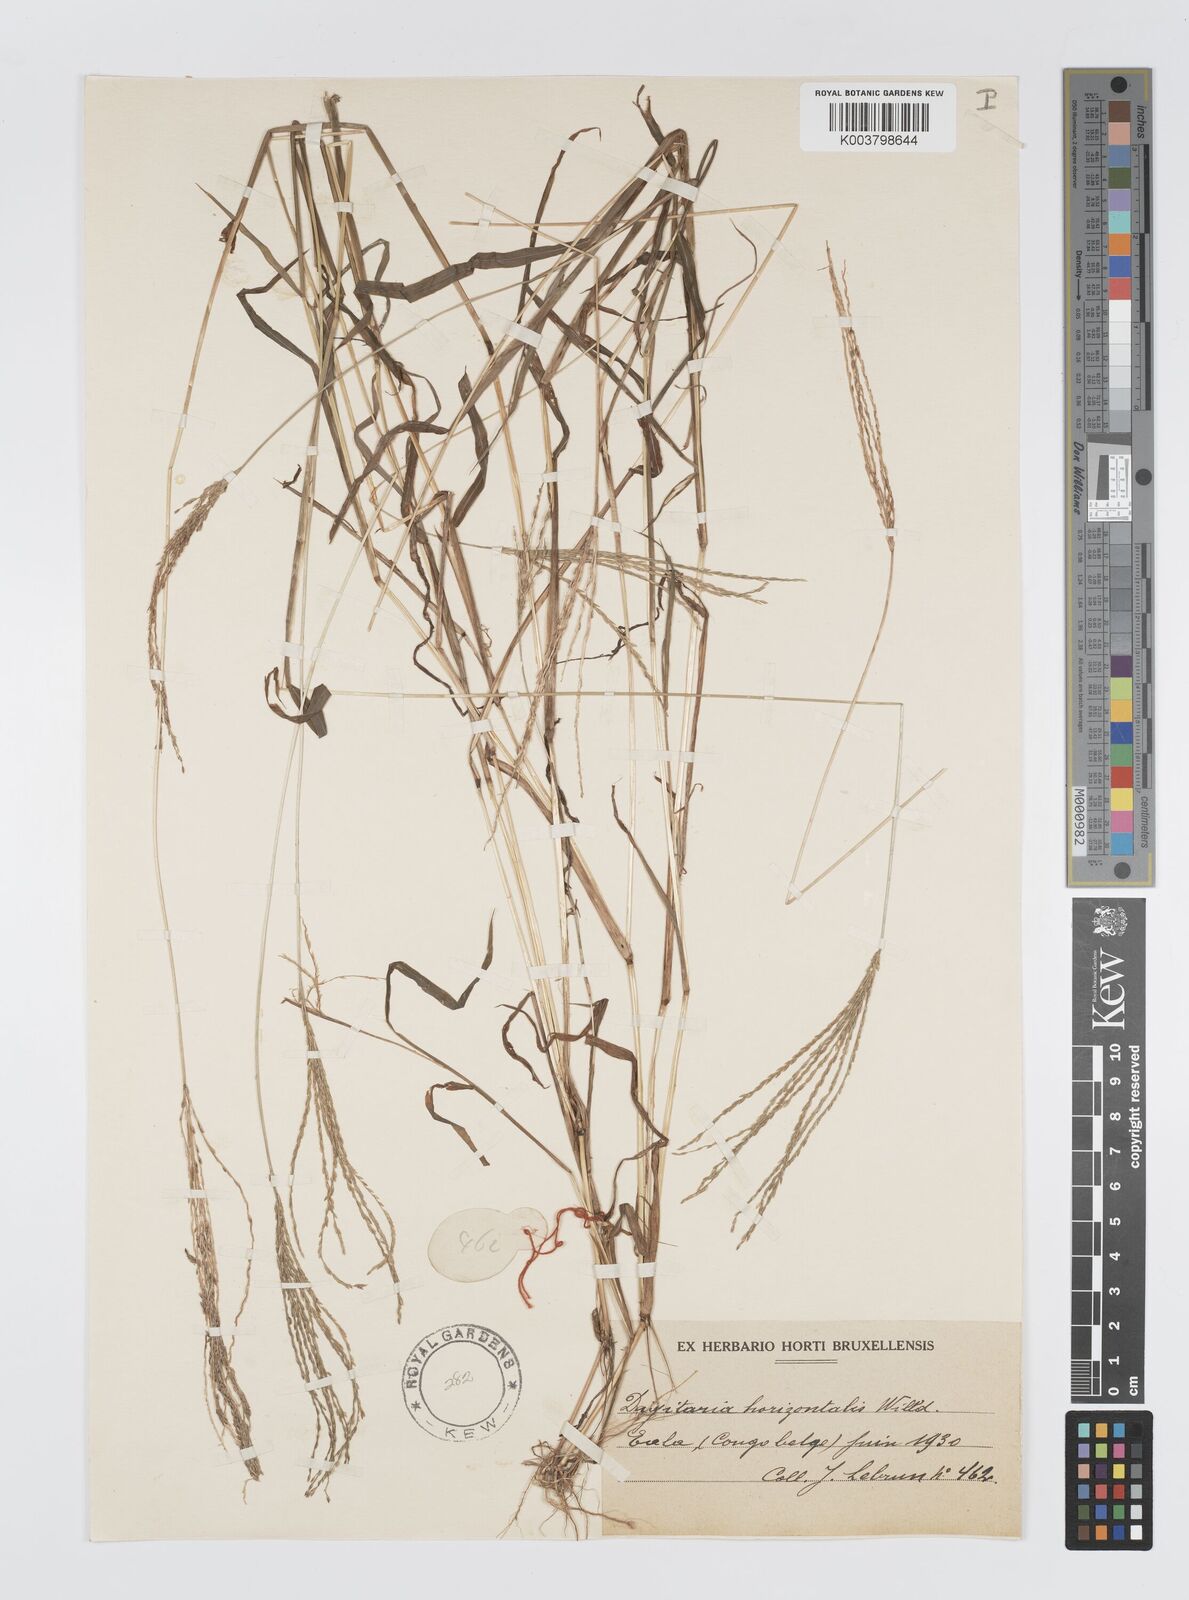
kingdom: Plantae
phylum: Tracheophyta
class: Liliopsida
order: Poales
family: Poaceae
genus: Digitaria
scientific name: Digitaria horizontalis
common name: Jamaican crabgrass
